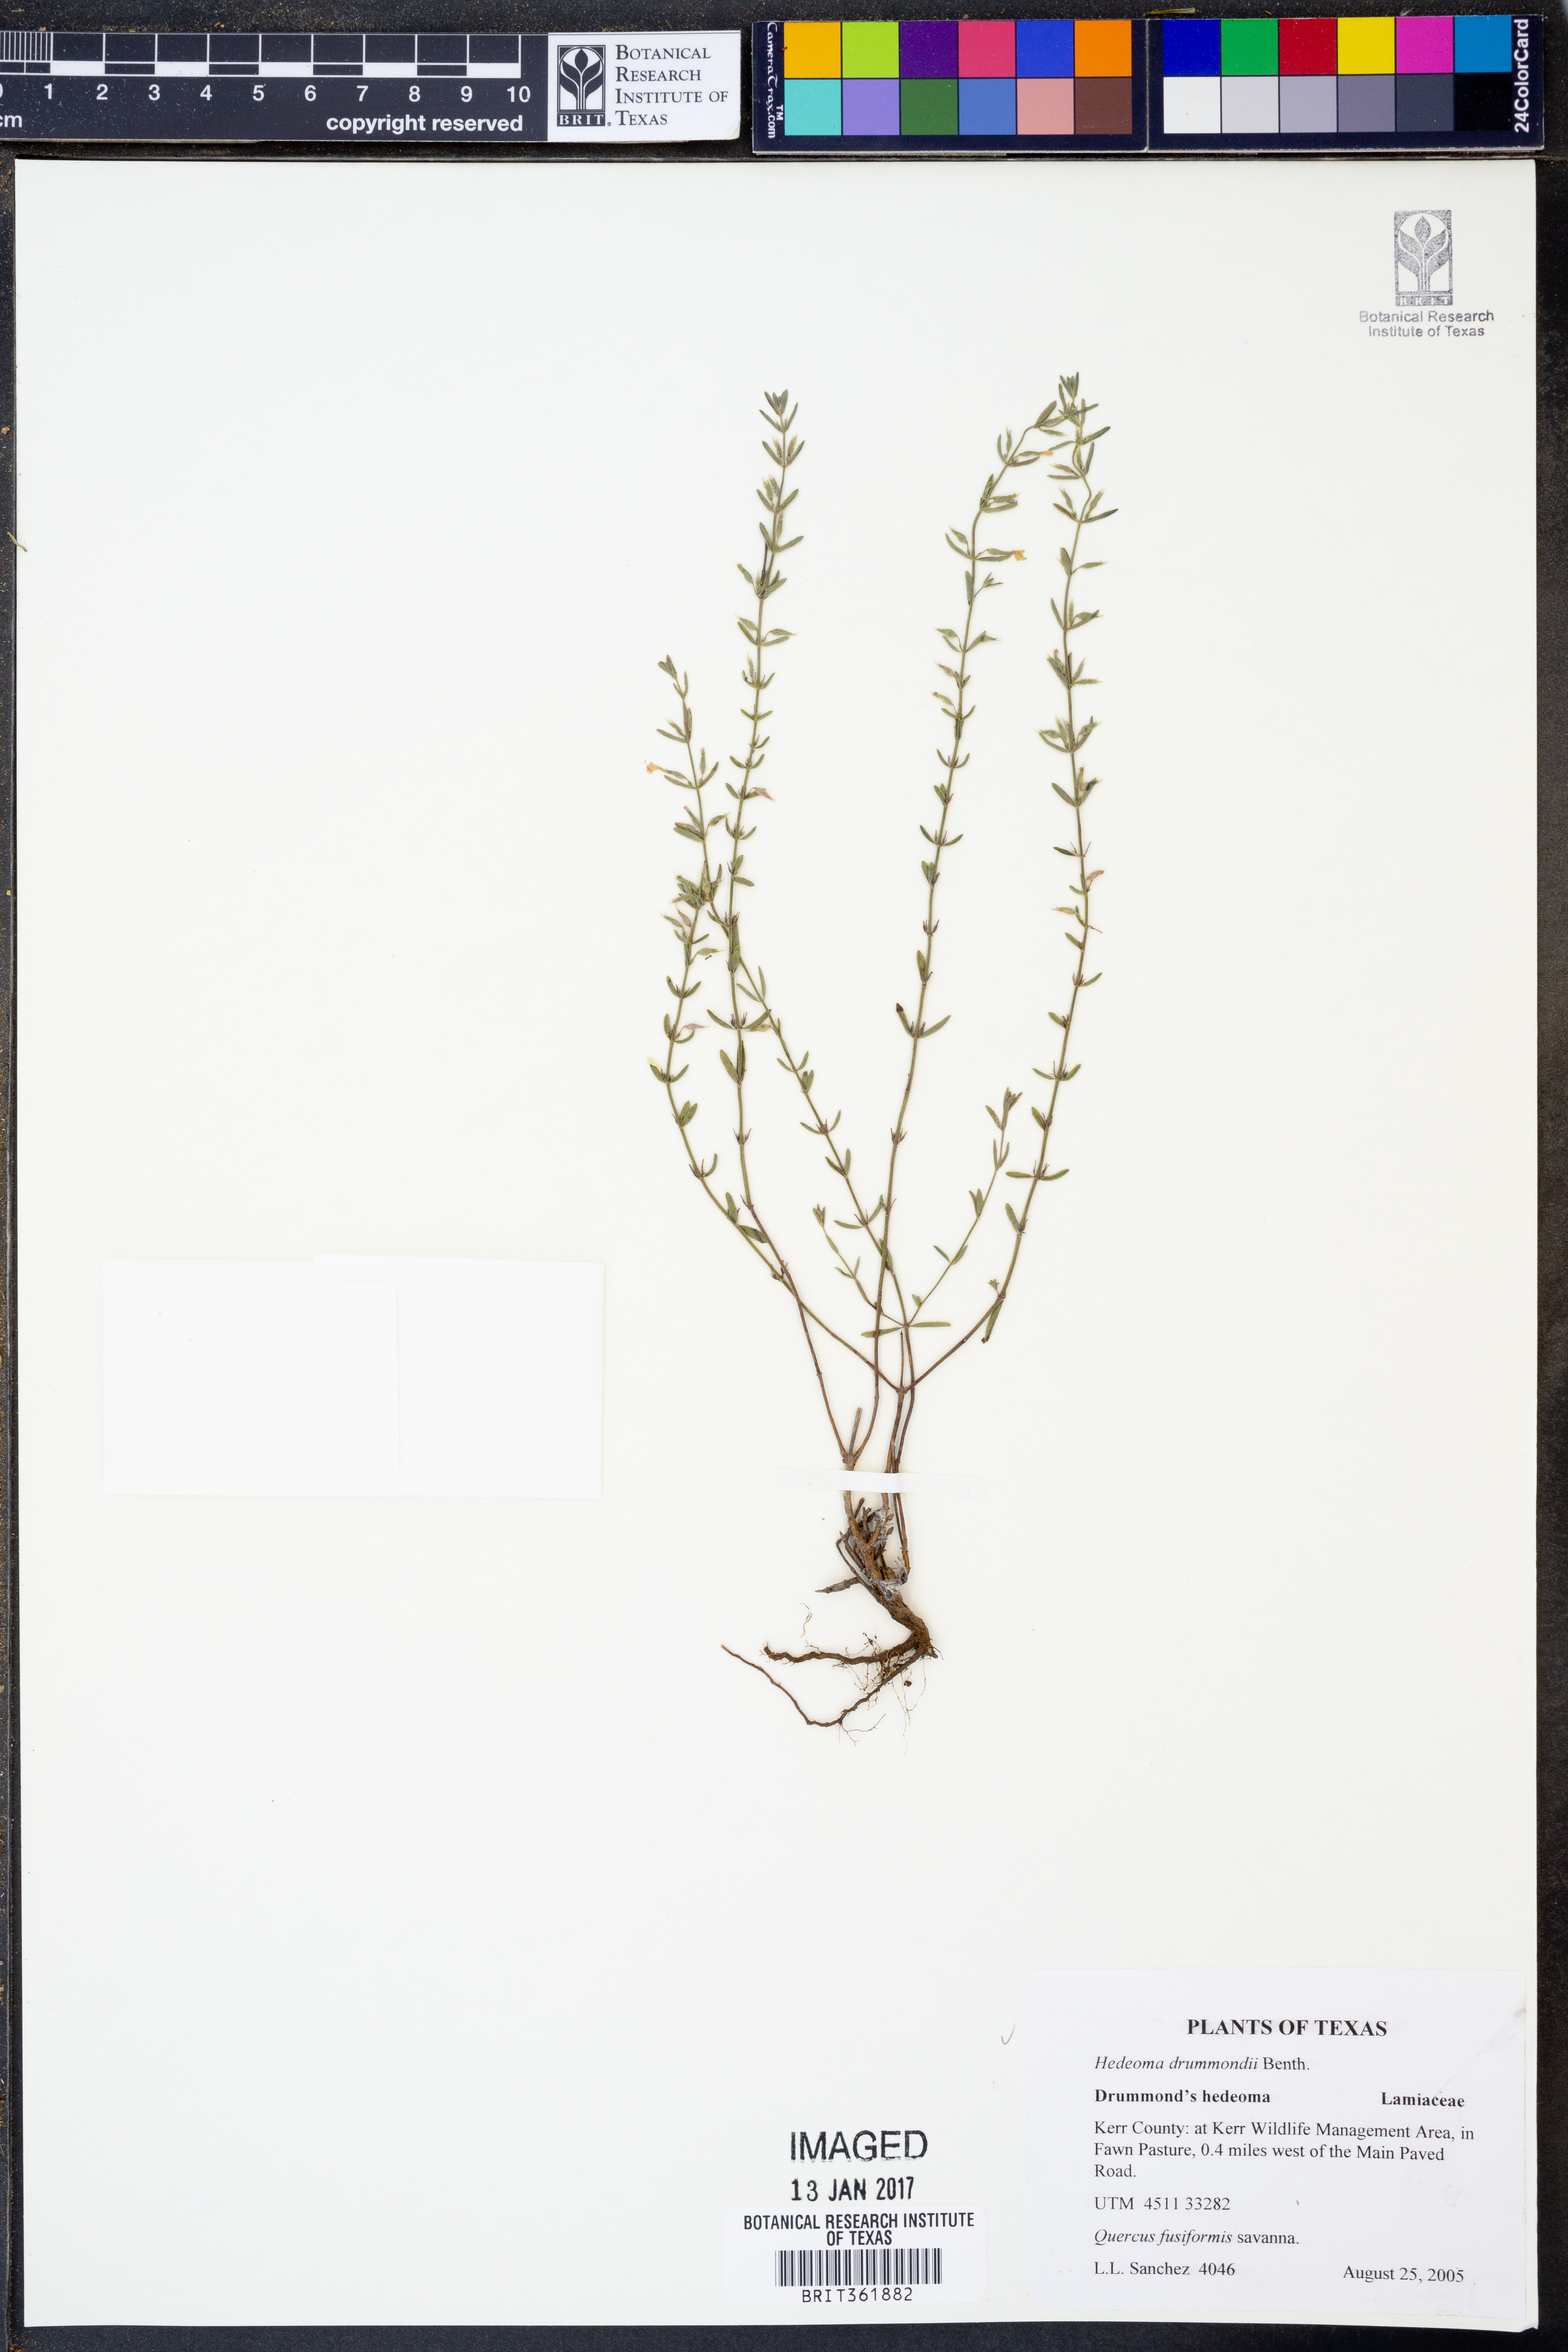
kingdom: Plantae
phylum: Tracheophyta
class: Magnoliopsida
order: Lamiales
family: Lamiaceae
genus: Hedeoma
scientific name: Hedeoma drummondii
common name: New mexico pennyroyal
